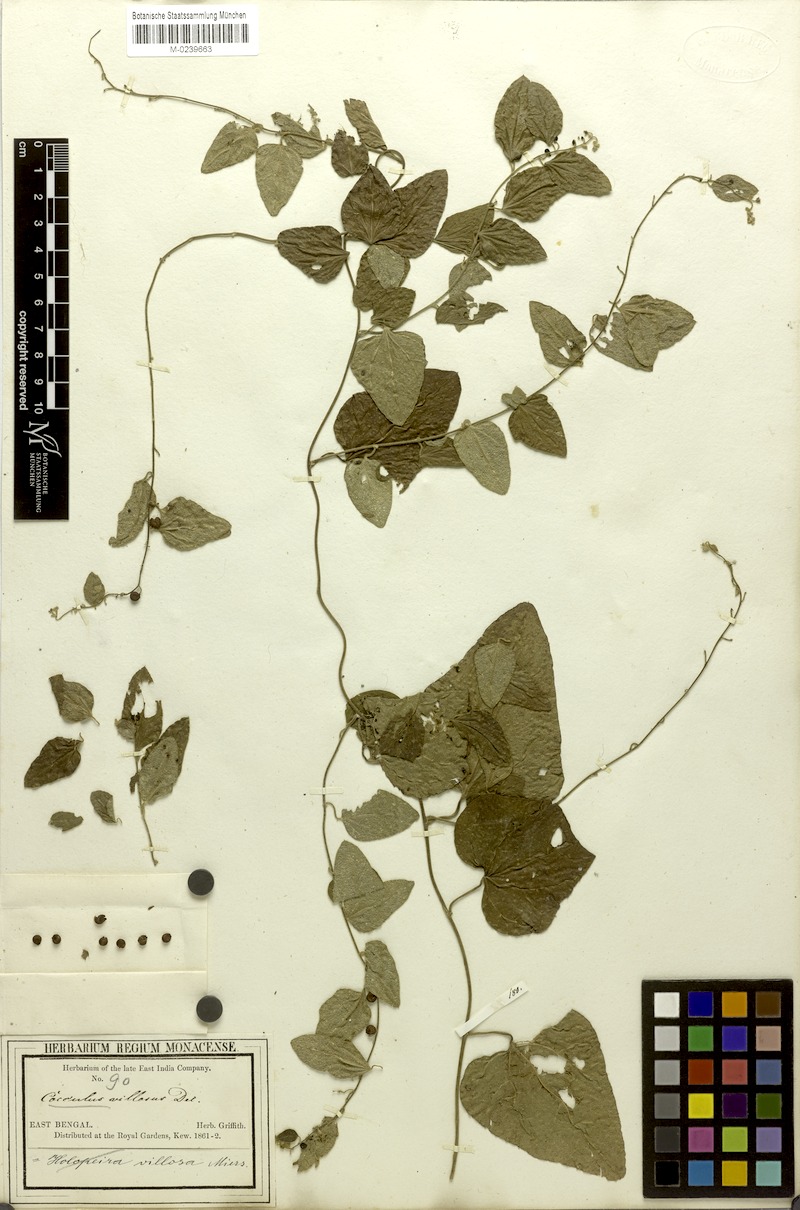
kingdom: Plantae
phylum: Tracheophyta
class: Magnoliopsida
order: Ranunculales
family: Menispermaceae
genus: Cocculus
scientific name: Cocculus hirsutus
